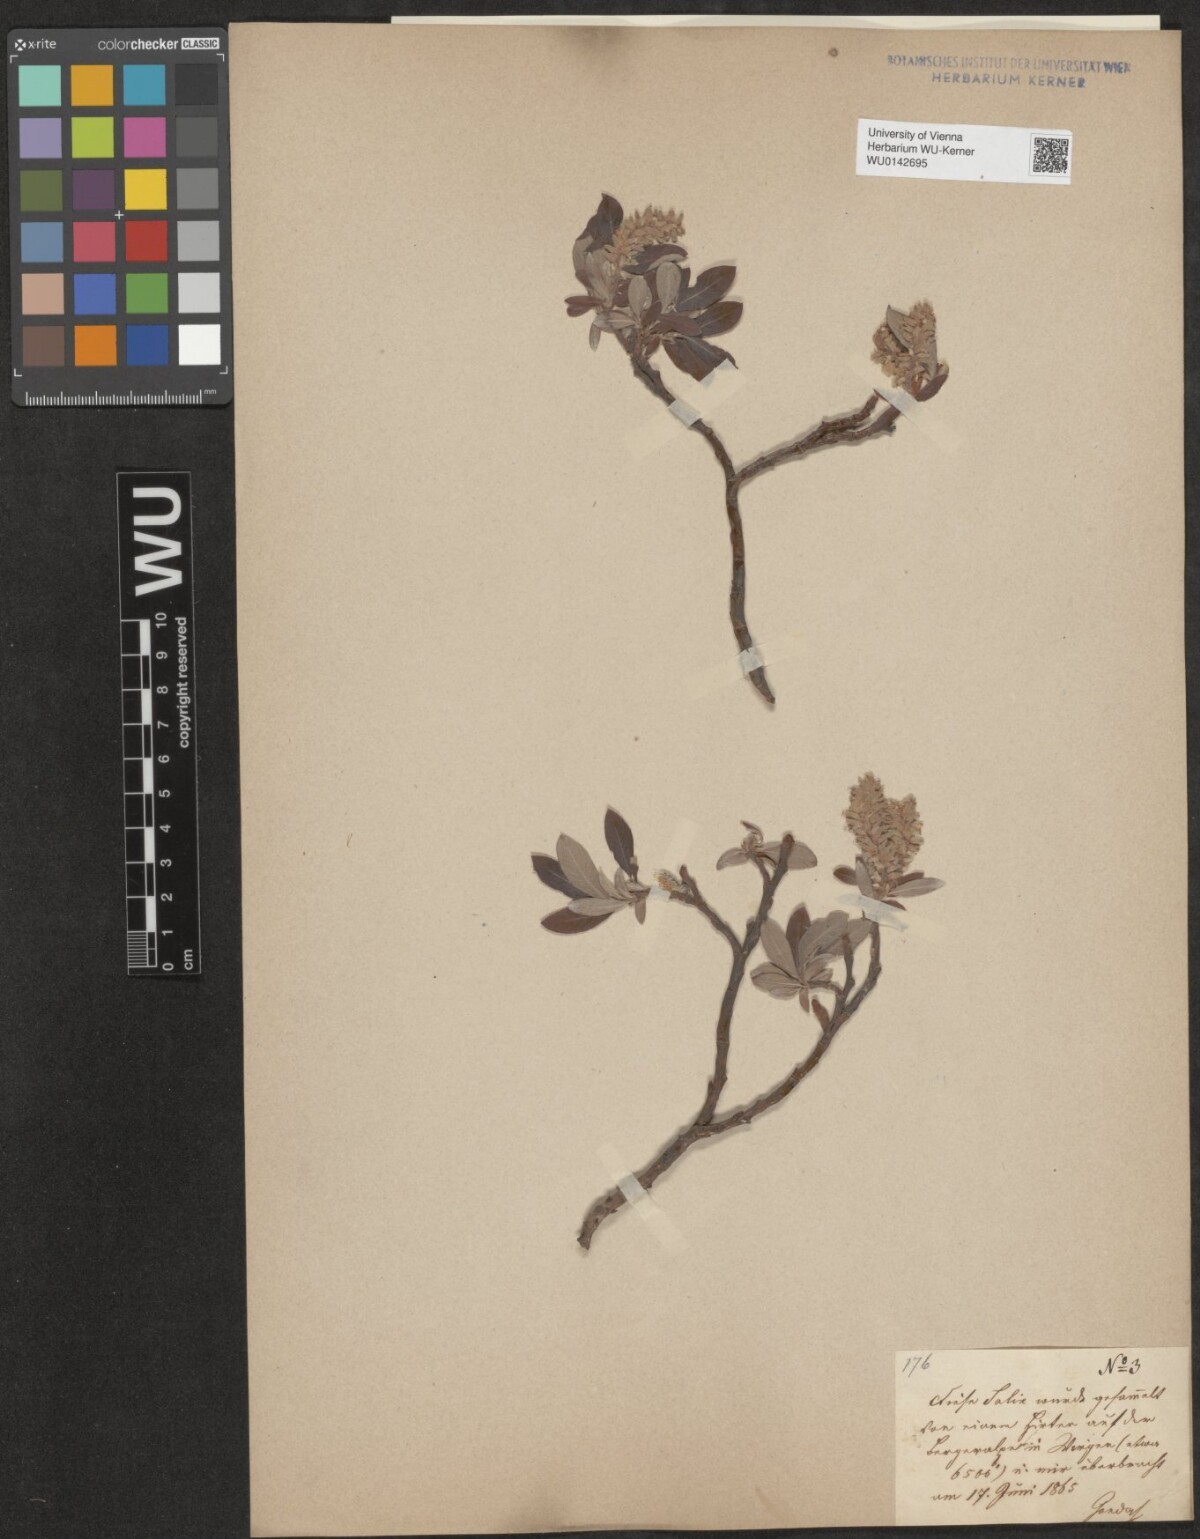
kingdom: Plantae
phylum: Tracheophyta
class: Magnoliopsida
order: Malpighiales
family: Salicaceae
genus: Salix
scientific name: Salix helvetica
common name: Swiss willow
